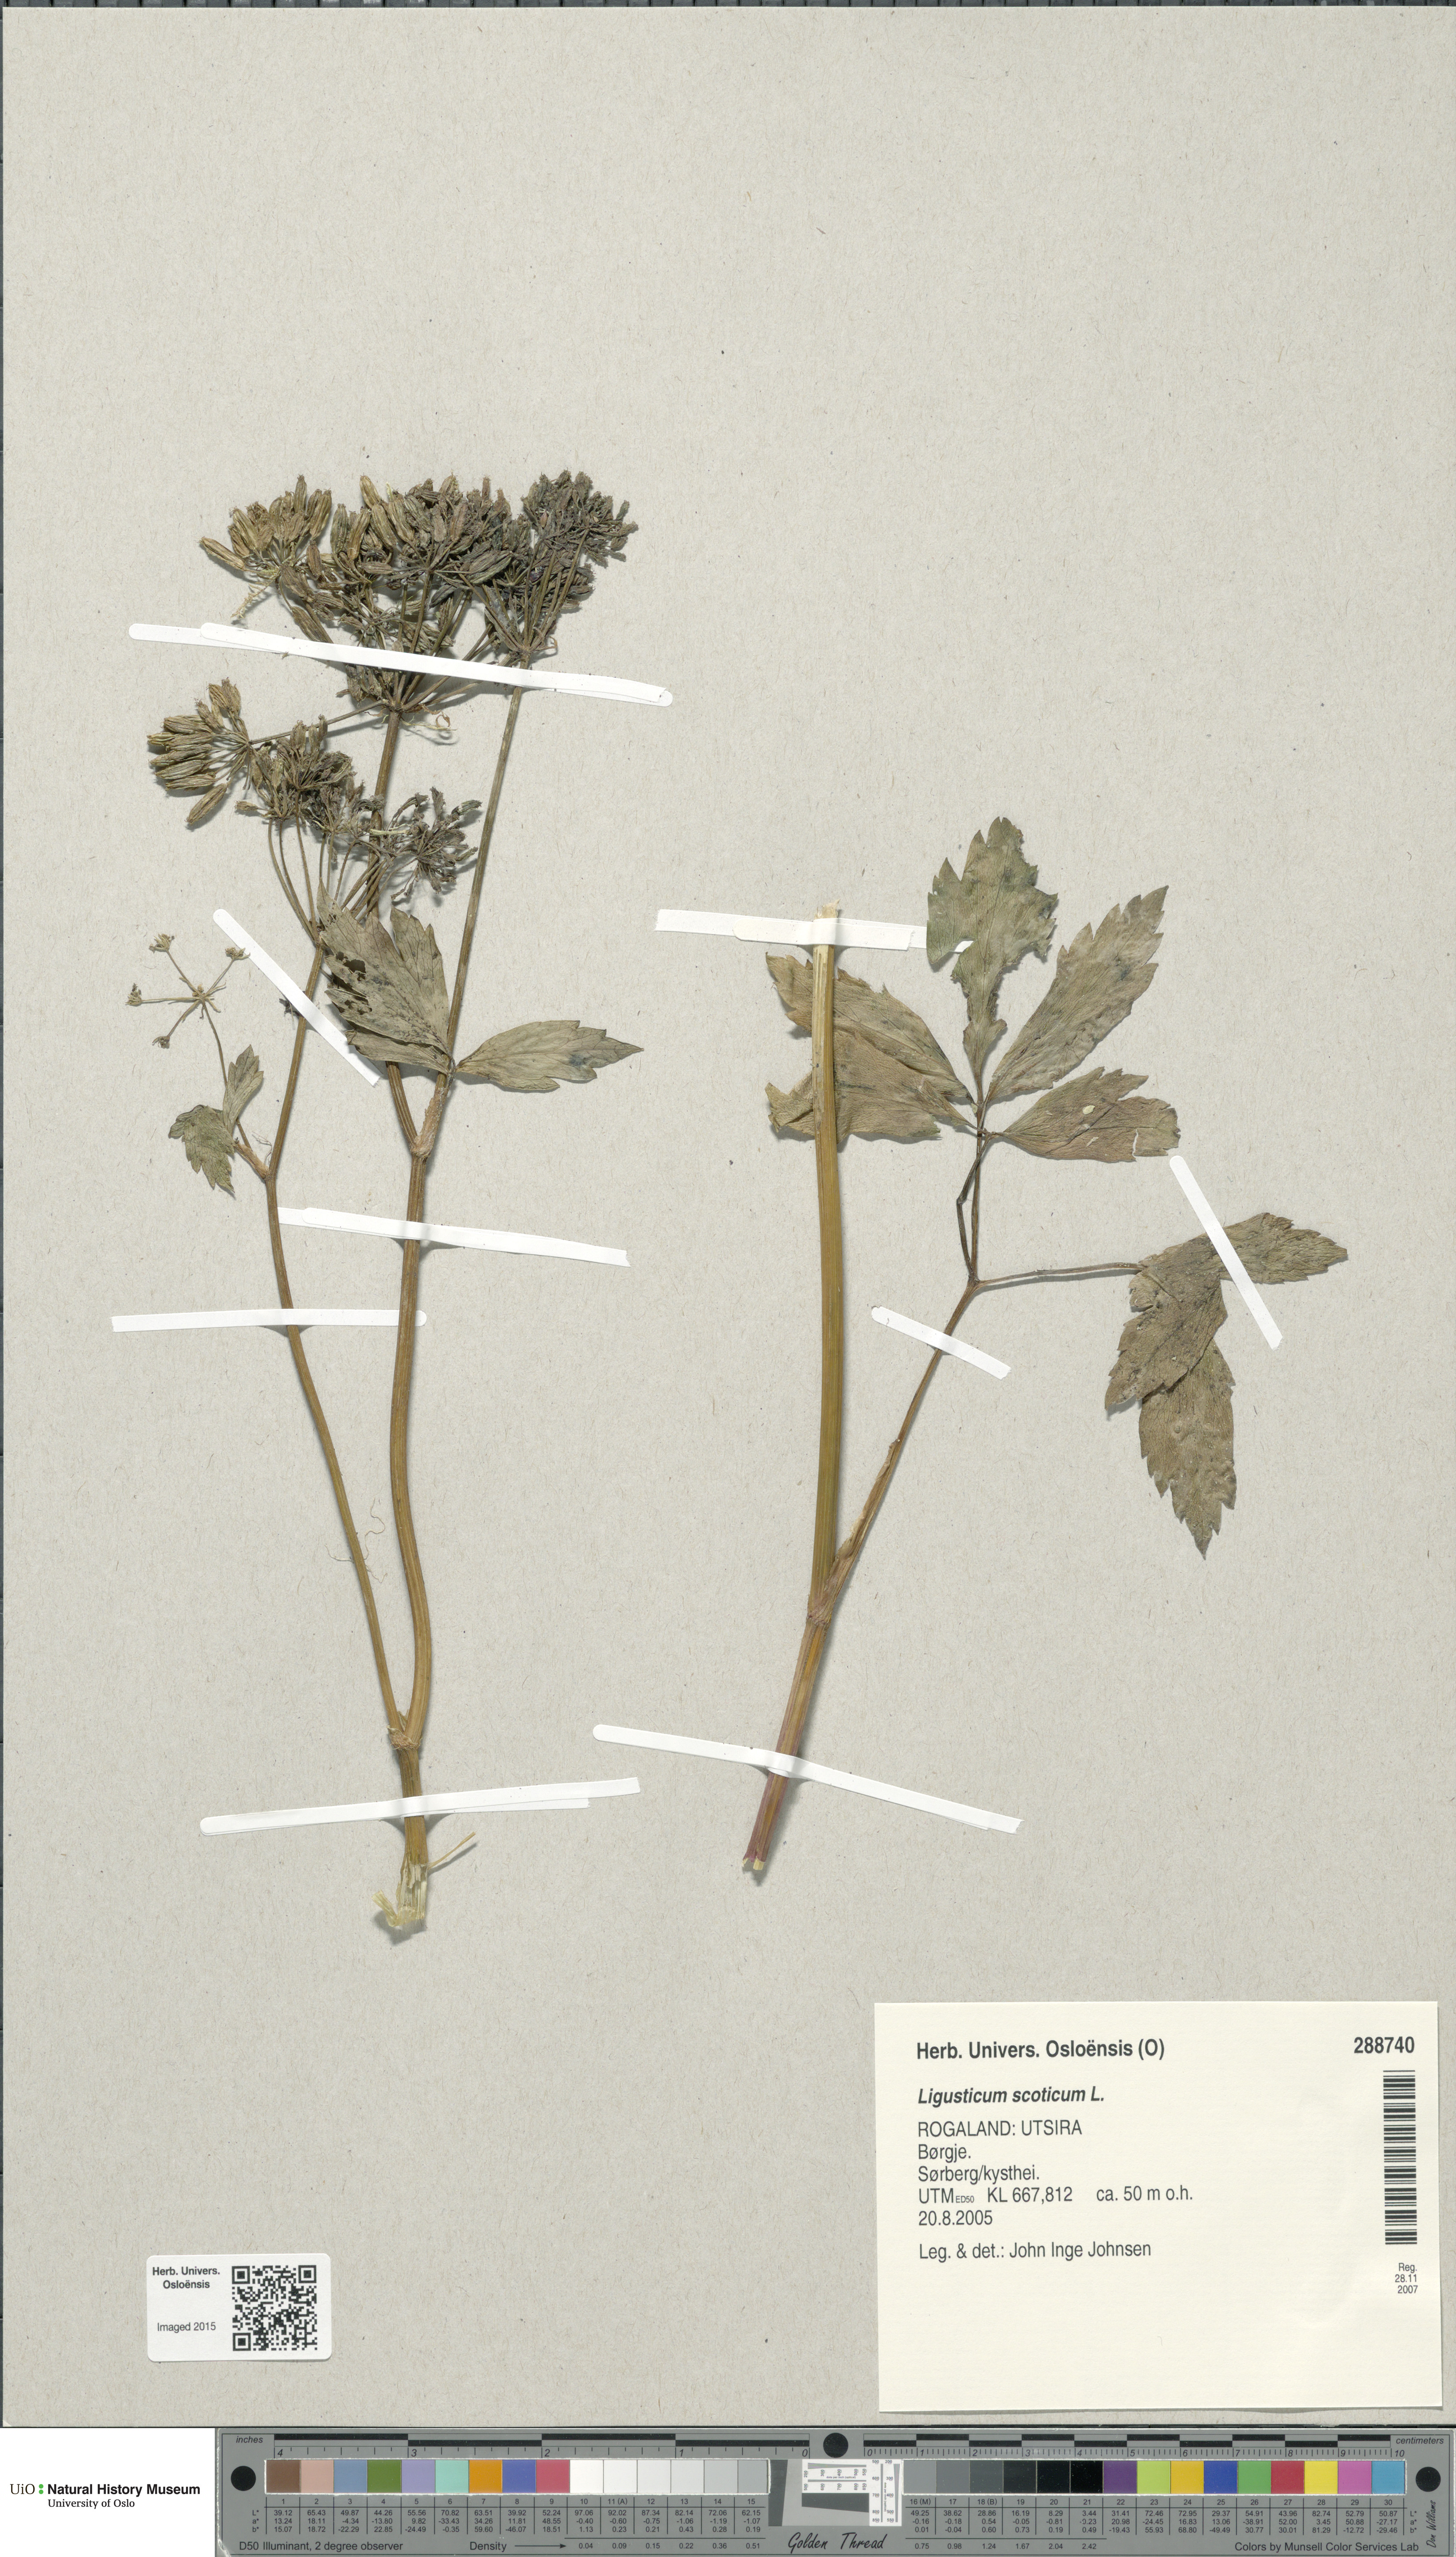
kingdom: Plantae
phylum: Tracheophyta
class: Magnoliopsida
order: Apiales
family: Apiaceae
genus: Ligusticum
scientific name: Ligusticum scothicum
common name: Beach lovage
